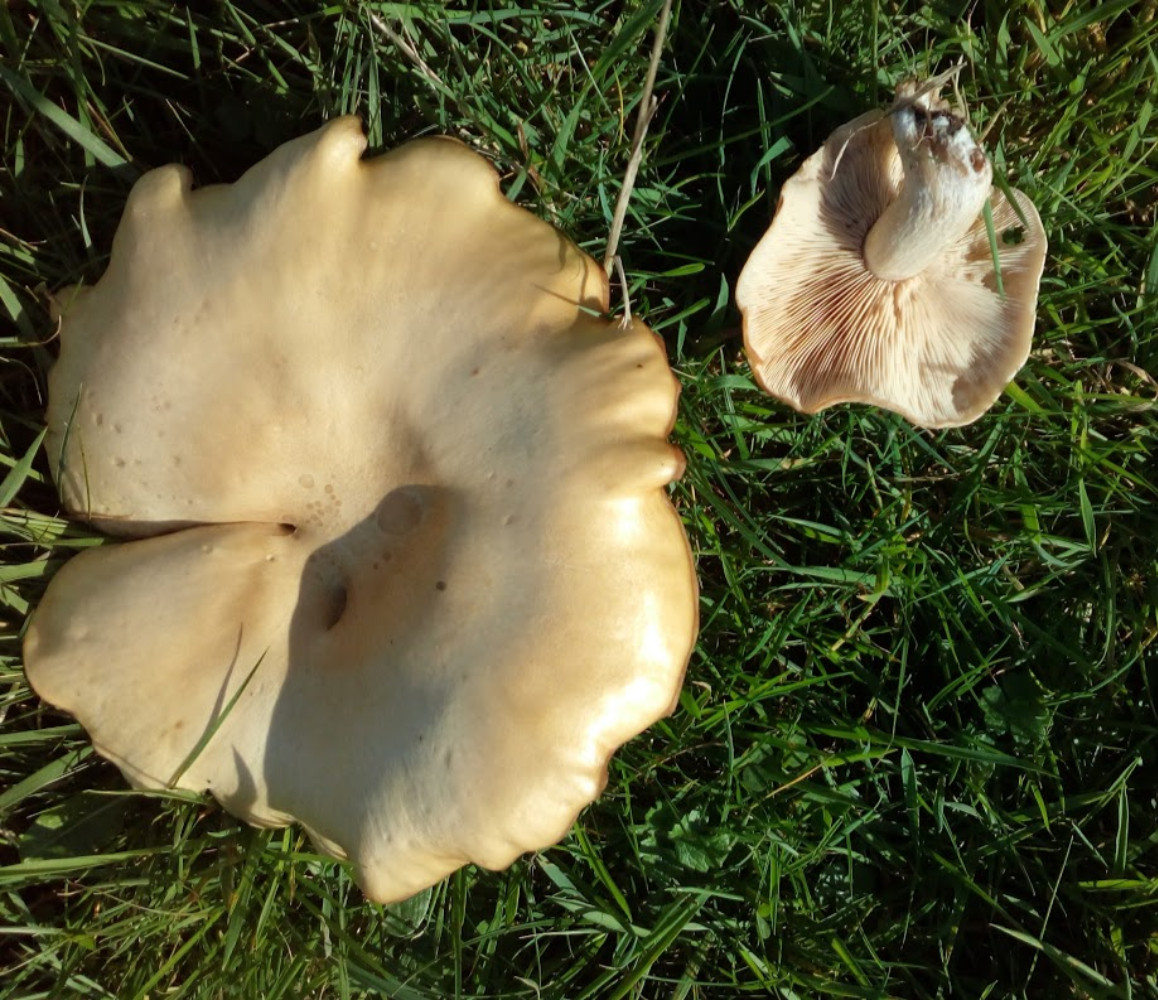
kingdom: Fungi
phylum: Basidiomycota
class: Agaricomycetes
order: Agaricales
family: Tricholomataceae
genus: Lepista
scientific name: Lepista panaeolus
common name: marmoreret hekseringshat
